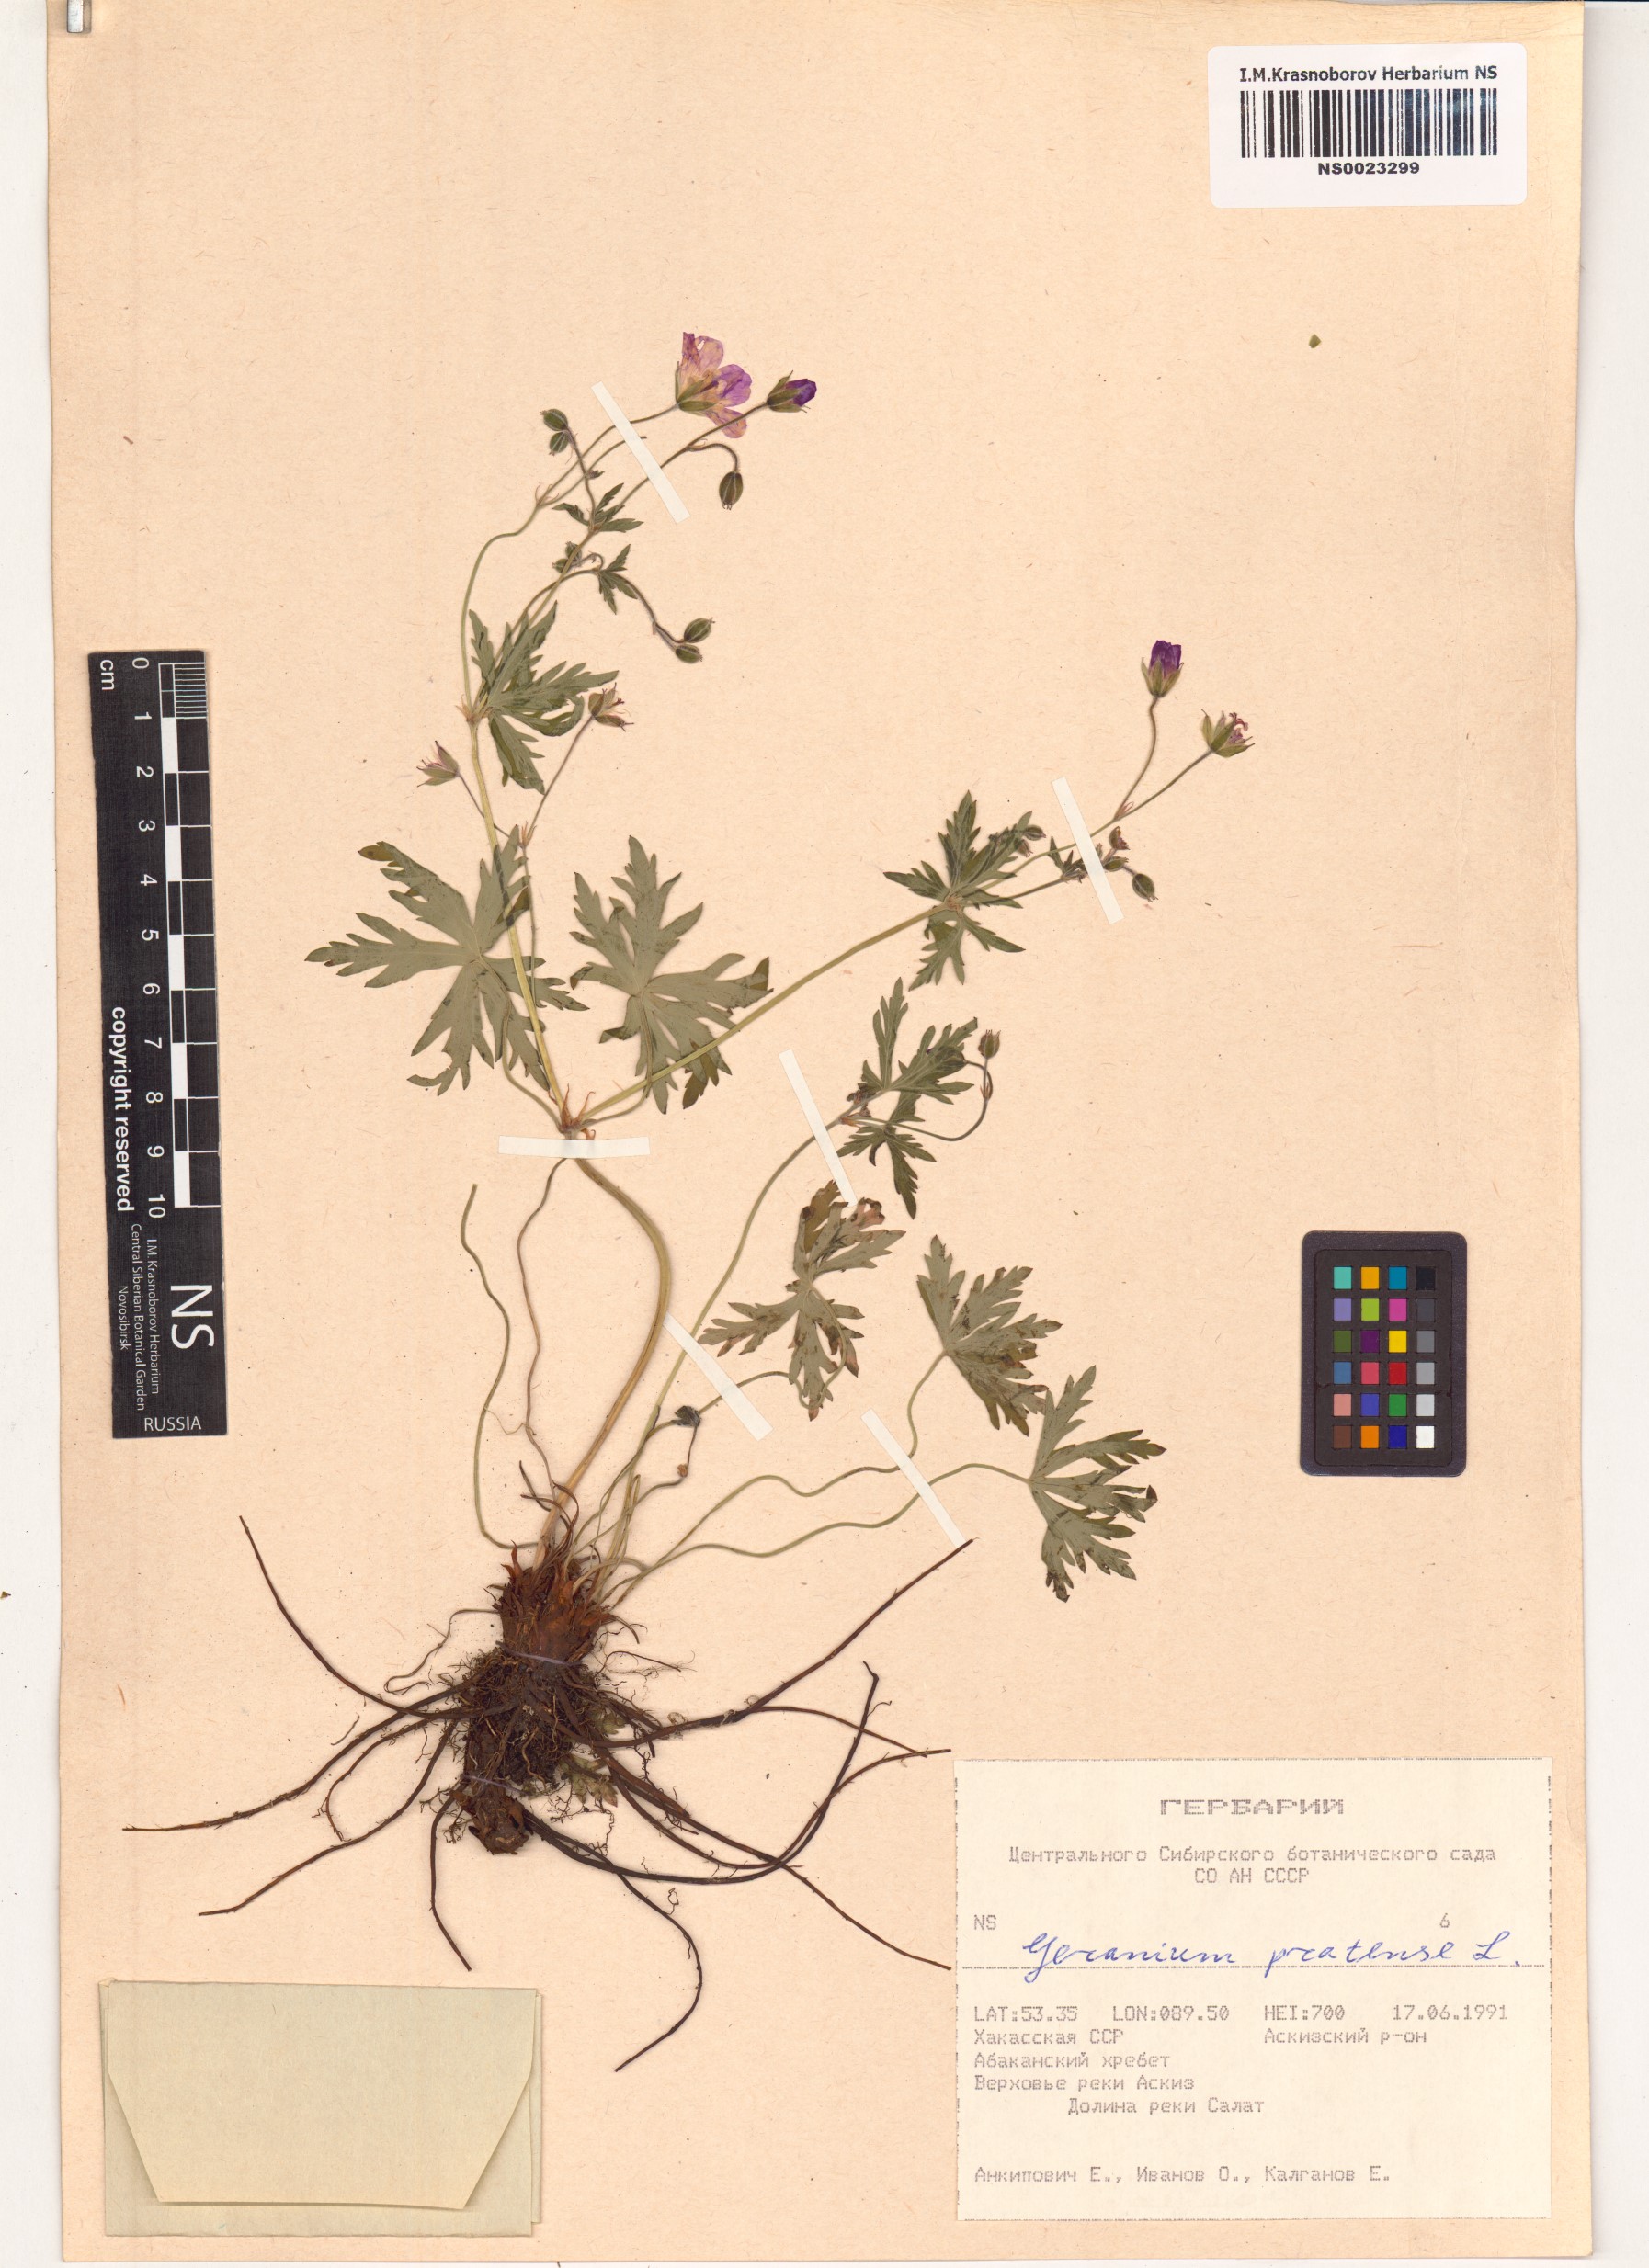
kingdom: Plantae
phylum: Tracheophyta
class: Magnoliopsida
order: Geraniales
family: Geraniaceae
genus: Geranium
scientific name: Geranium pratense
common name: Meadow crane's-bill
